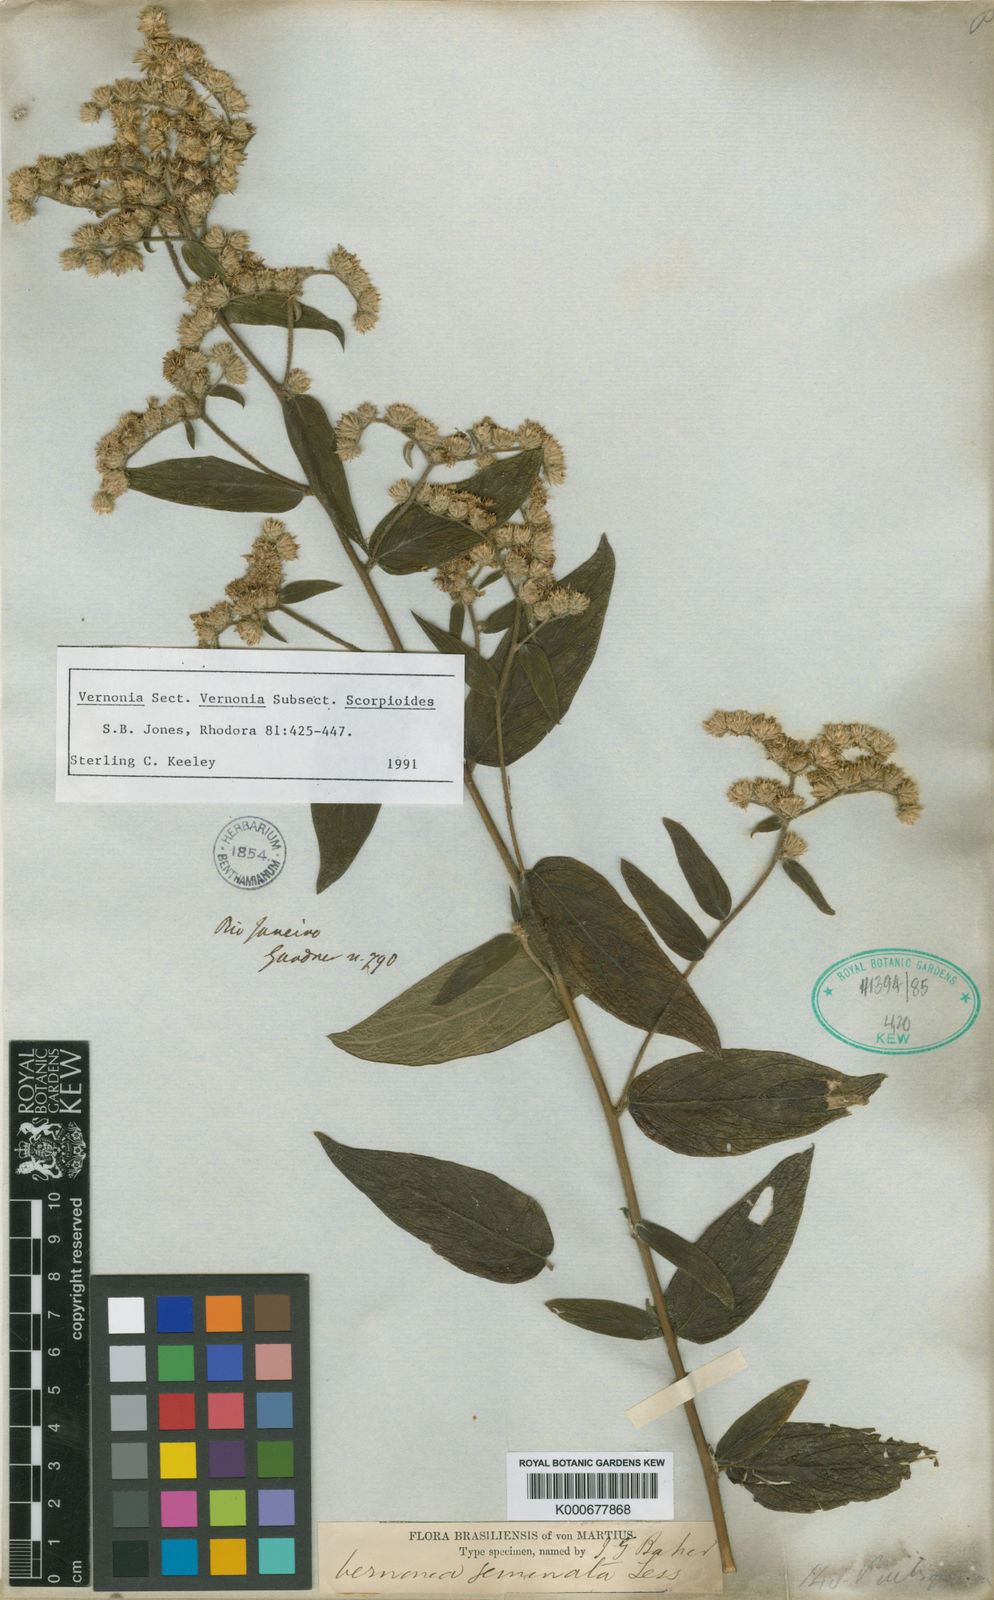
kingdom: Plantae
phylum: Tracheophyta
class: Magnoliopsida
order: Asterales
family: Asteraceae
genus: Vernonia
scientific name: Vernonia
